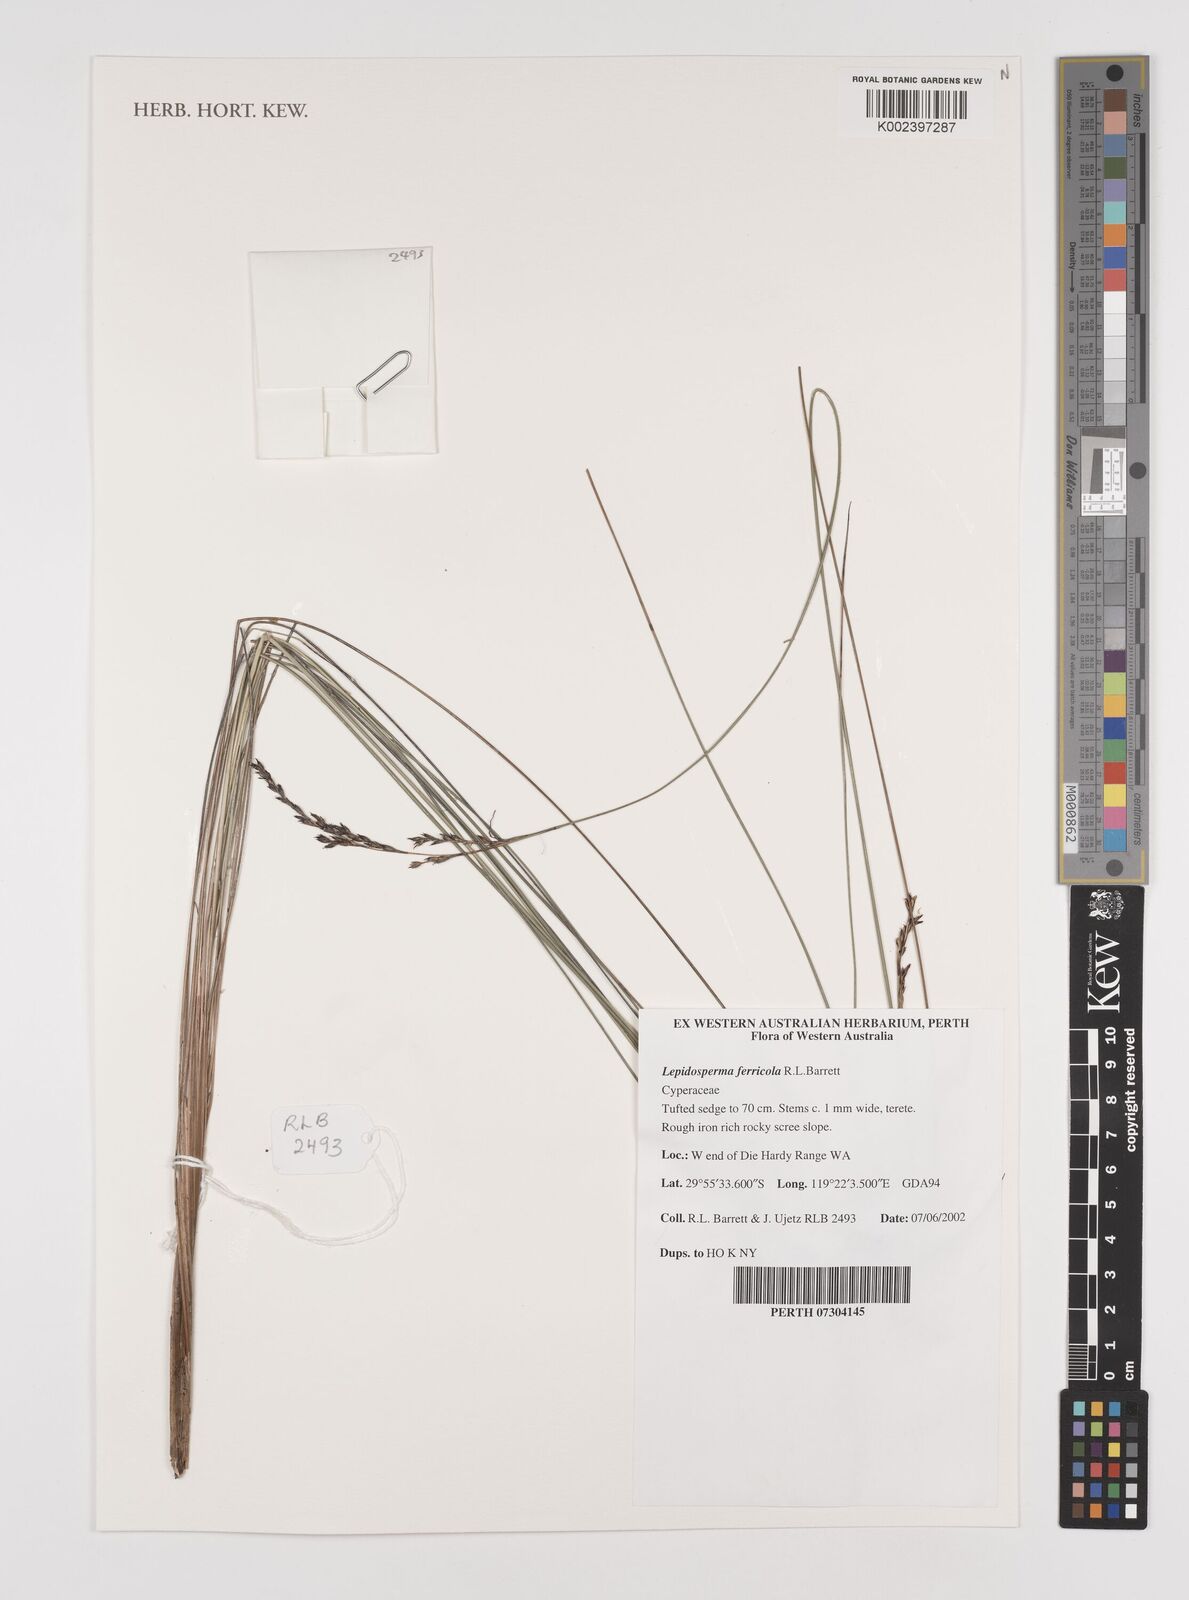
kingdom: Plantae
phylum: Tracheophyta
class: Liliopsida
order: Poales
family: Cyperaceae
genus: Lepidosperma
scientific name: Lepidosperma ferricola
